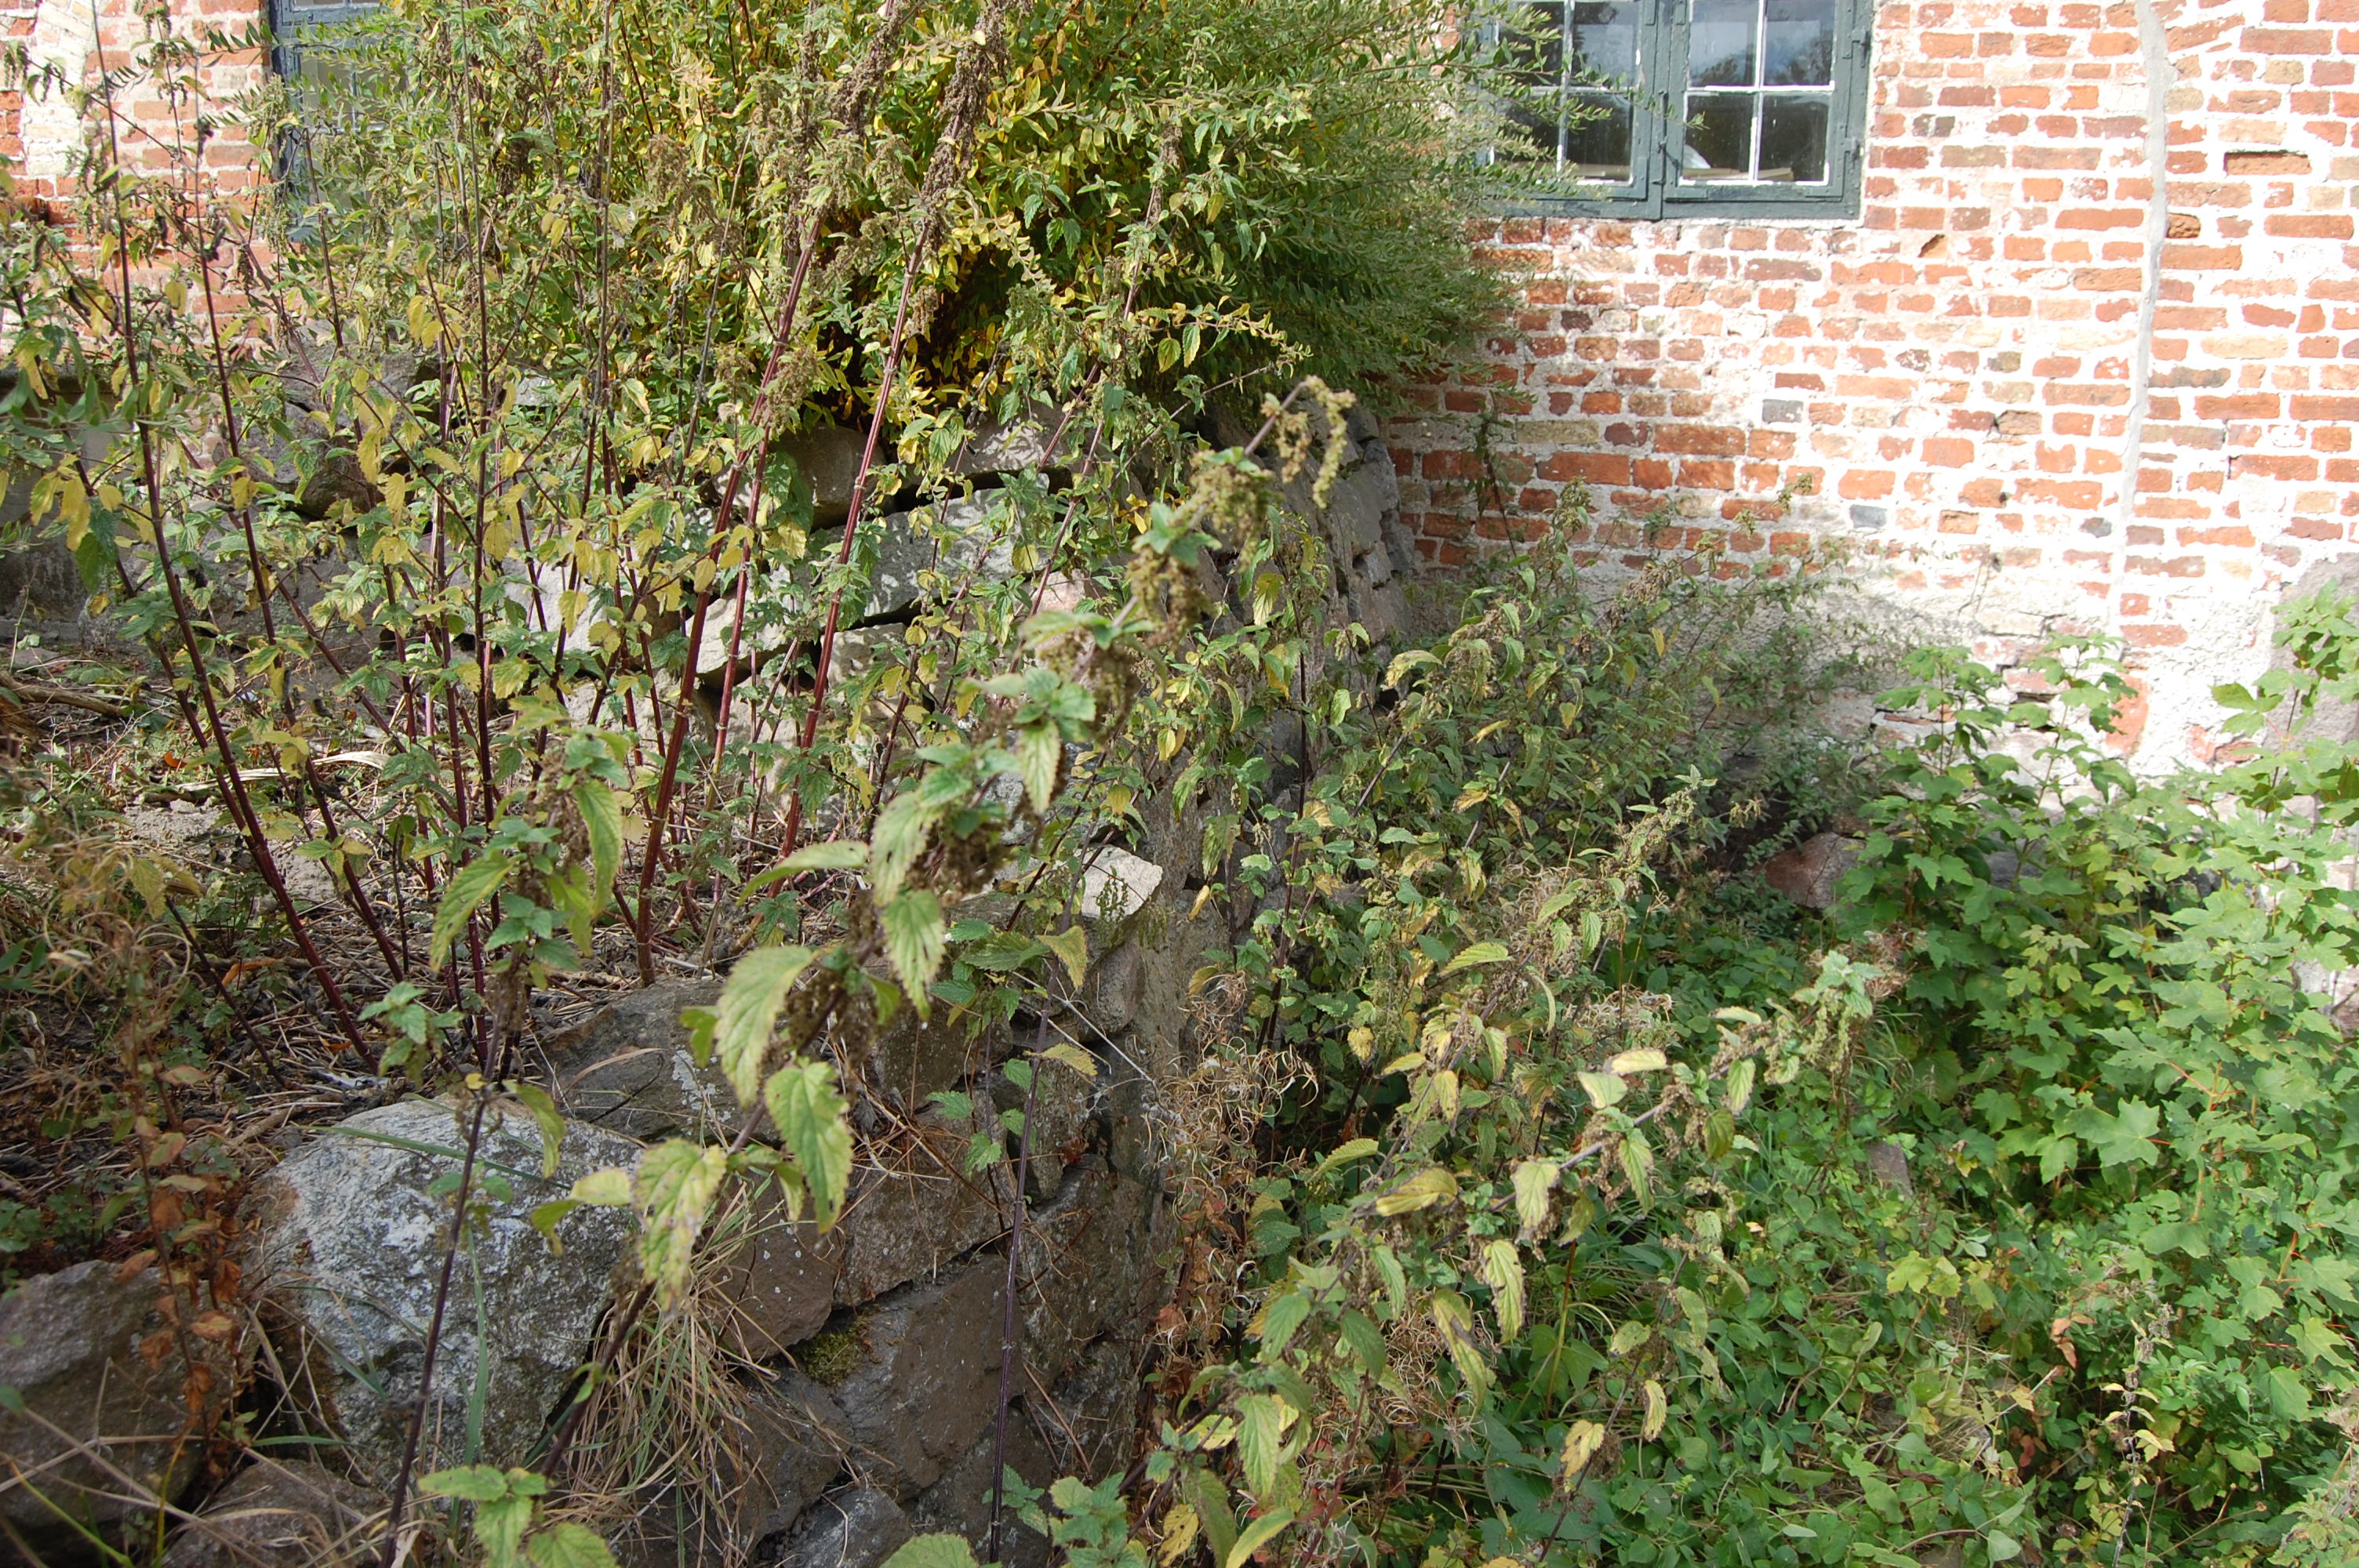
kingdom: Plantae
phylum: Tracheophyta
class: Magnoliopsida
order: Rosales
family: Urticaceae
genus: Urtica
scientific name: Urtica dioica
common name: Common nettle
